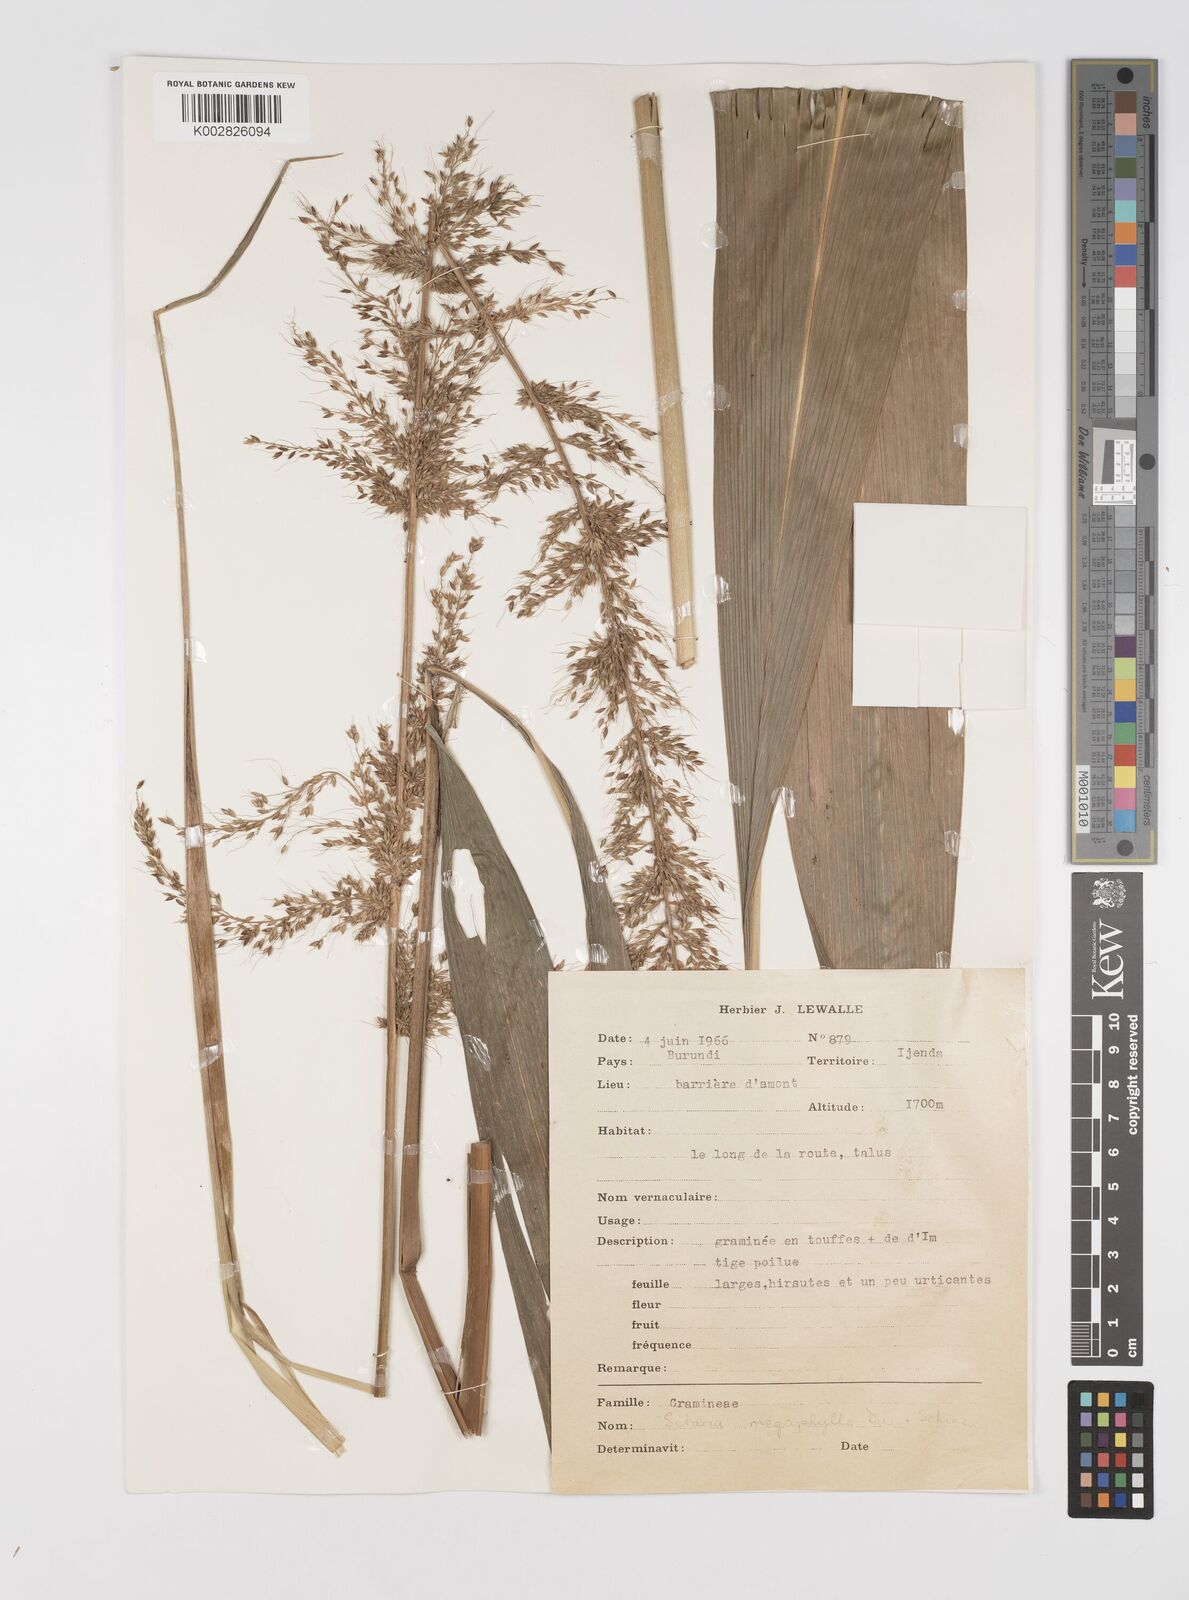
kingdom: Plantae
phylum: Tracheophyta
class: Liliopsida
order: Poales
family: Poaceae
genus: Setaria
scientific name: Setaria poiretiana
